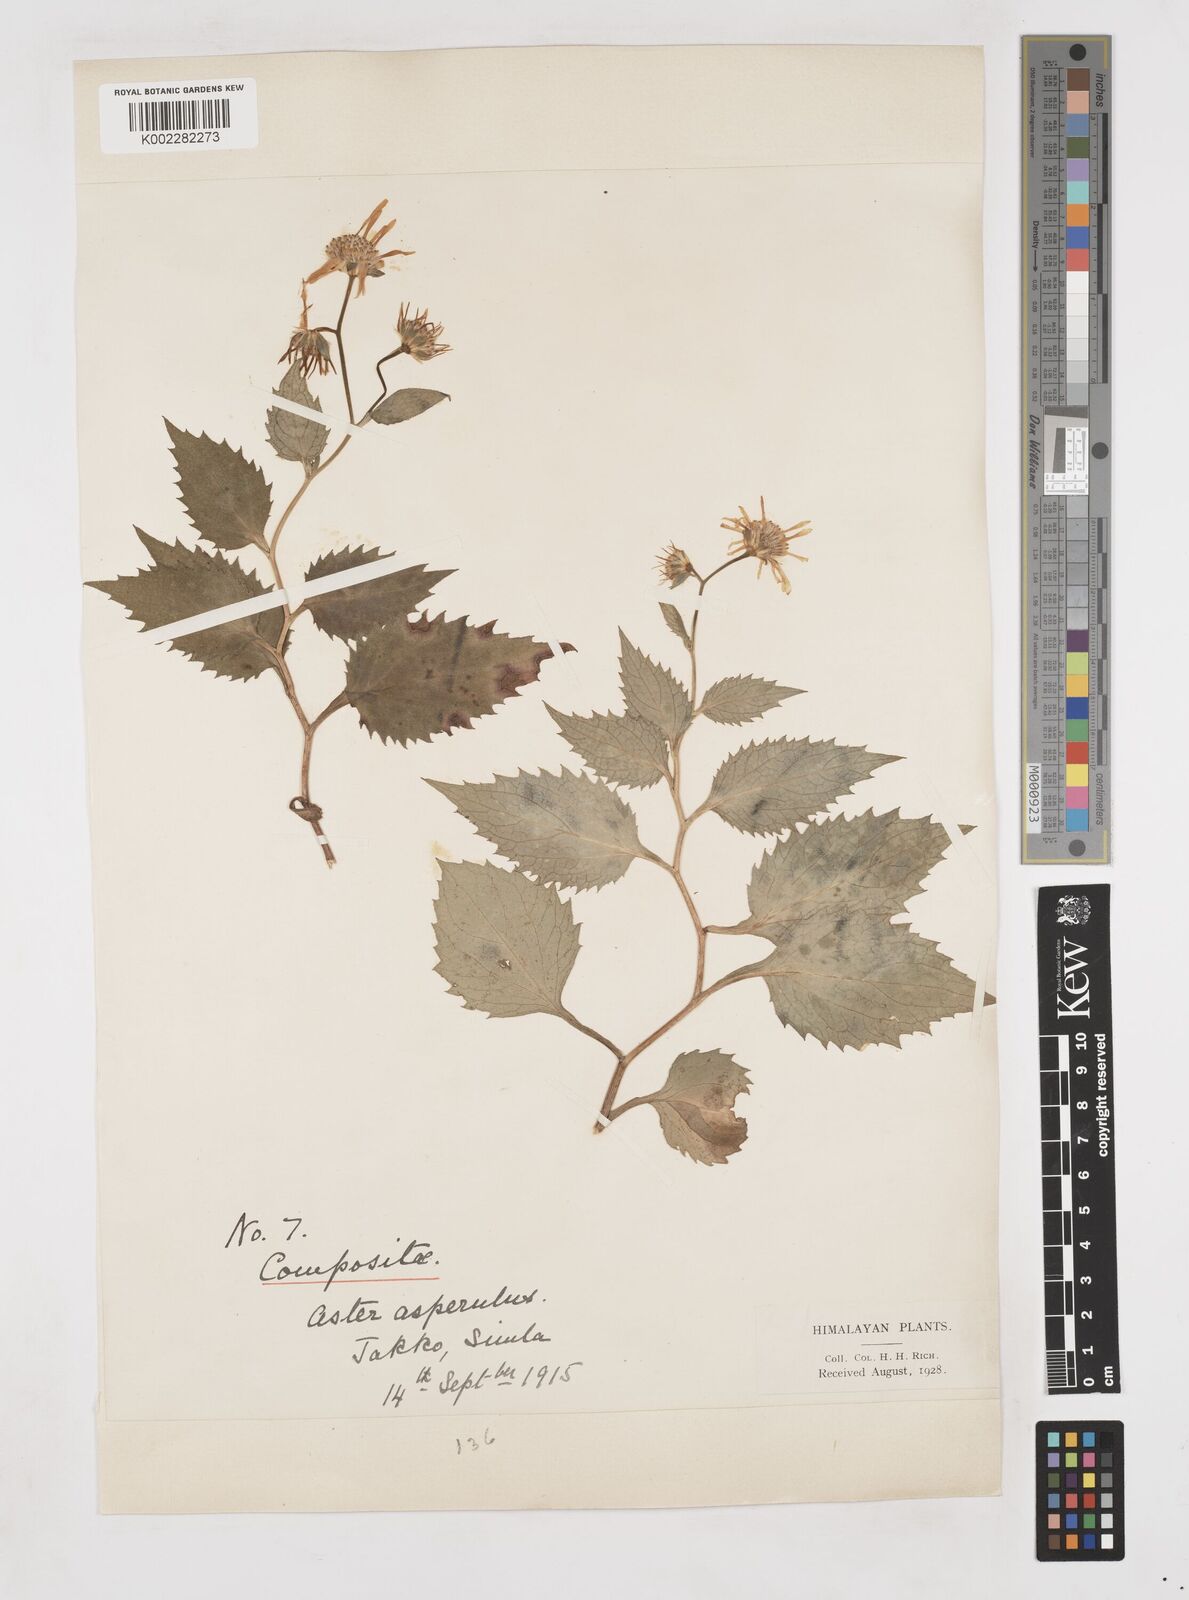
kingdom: Plantae
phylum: Tracheophyta
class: Magnoliopsida
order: Asterales
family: Asteraceae
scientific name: Asteraceae
